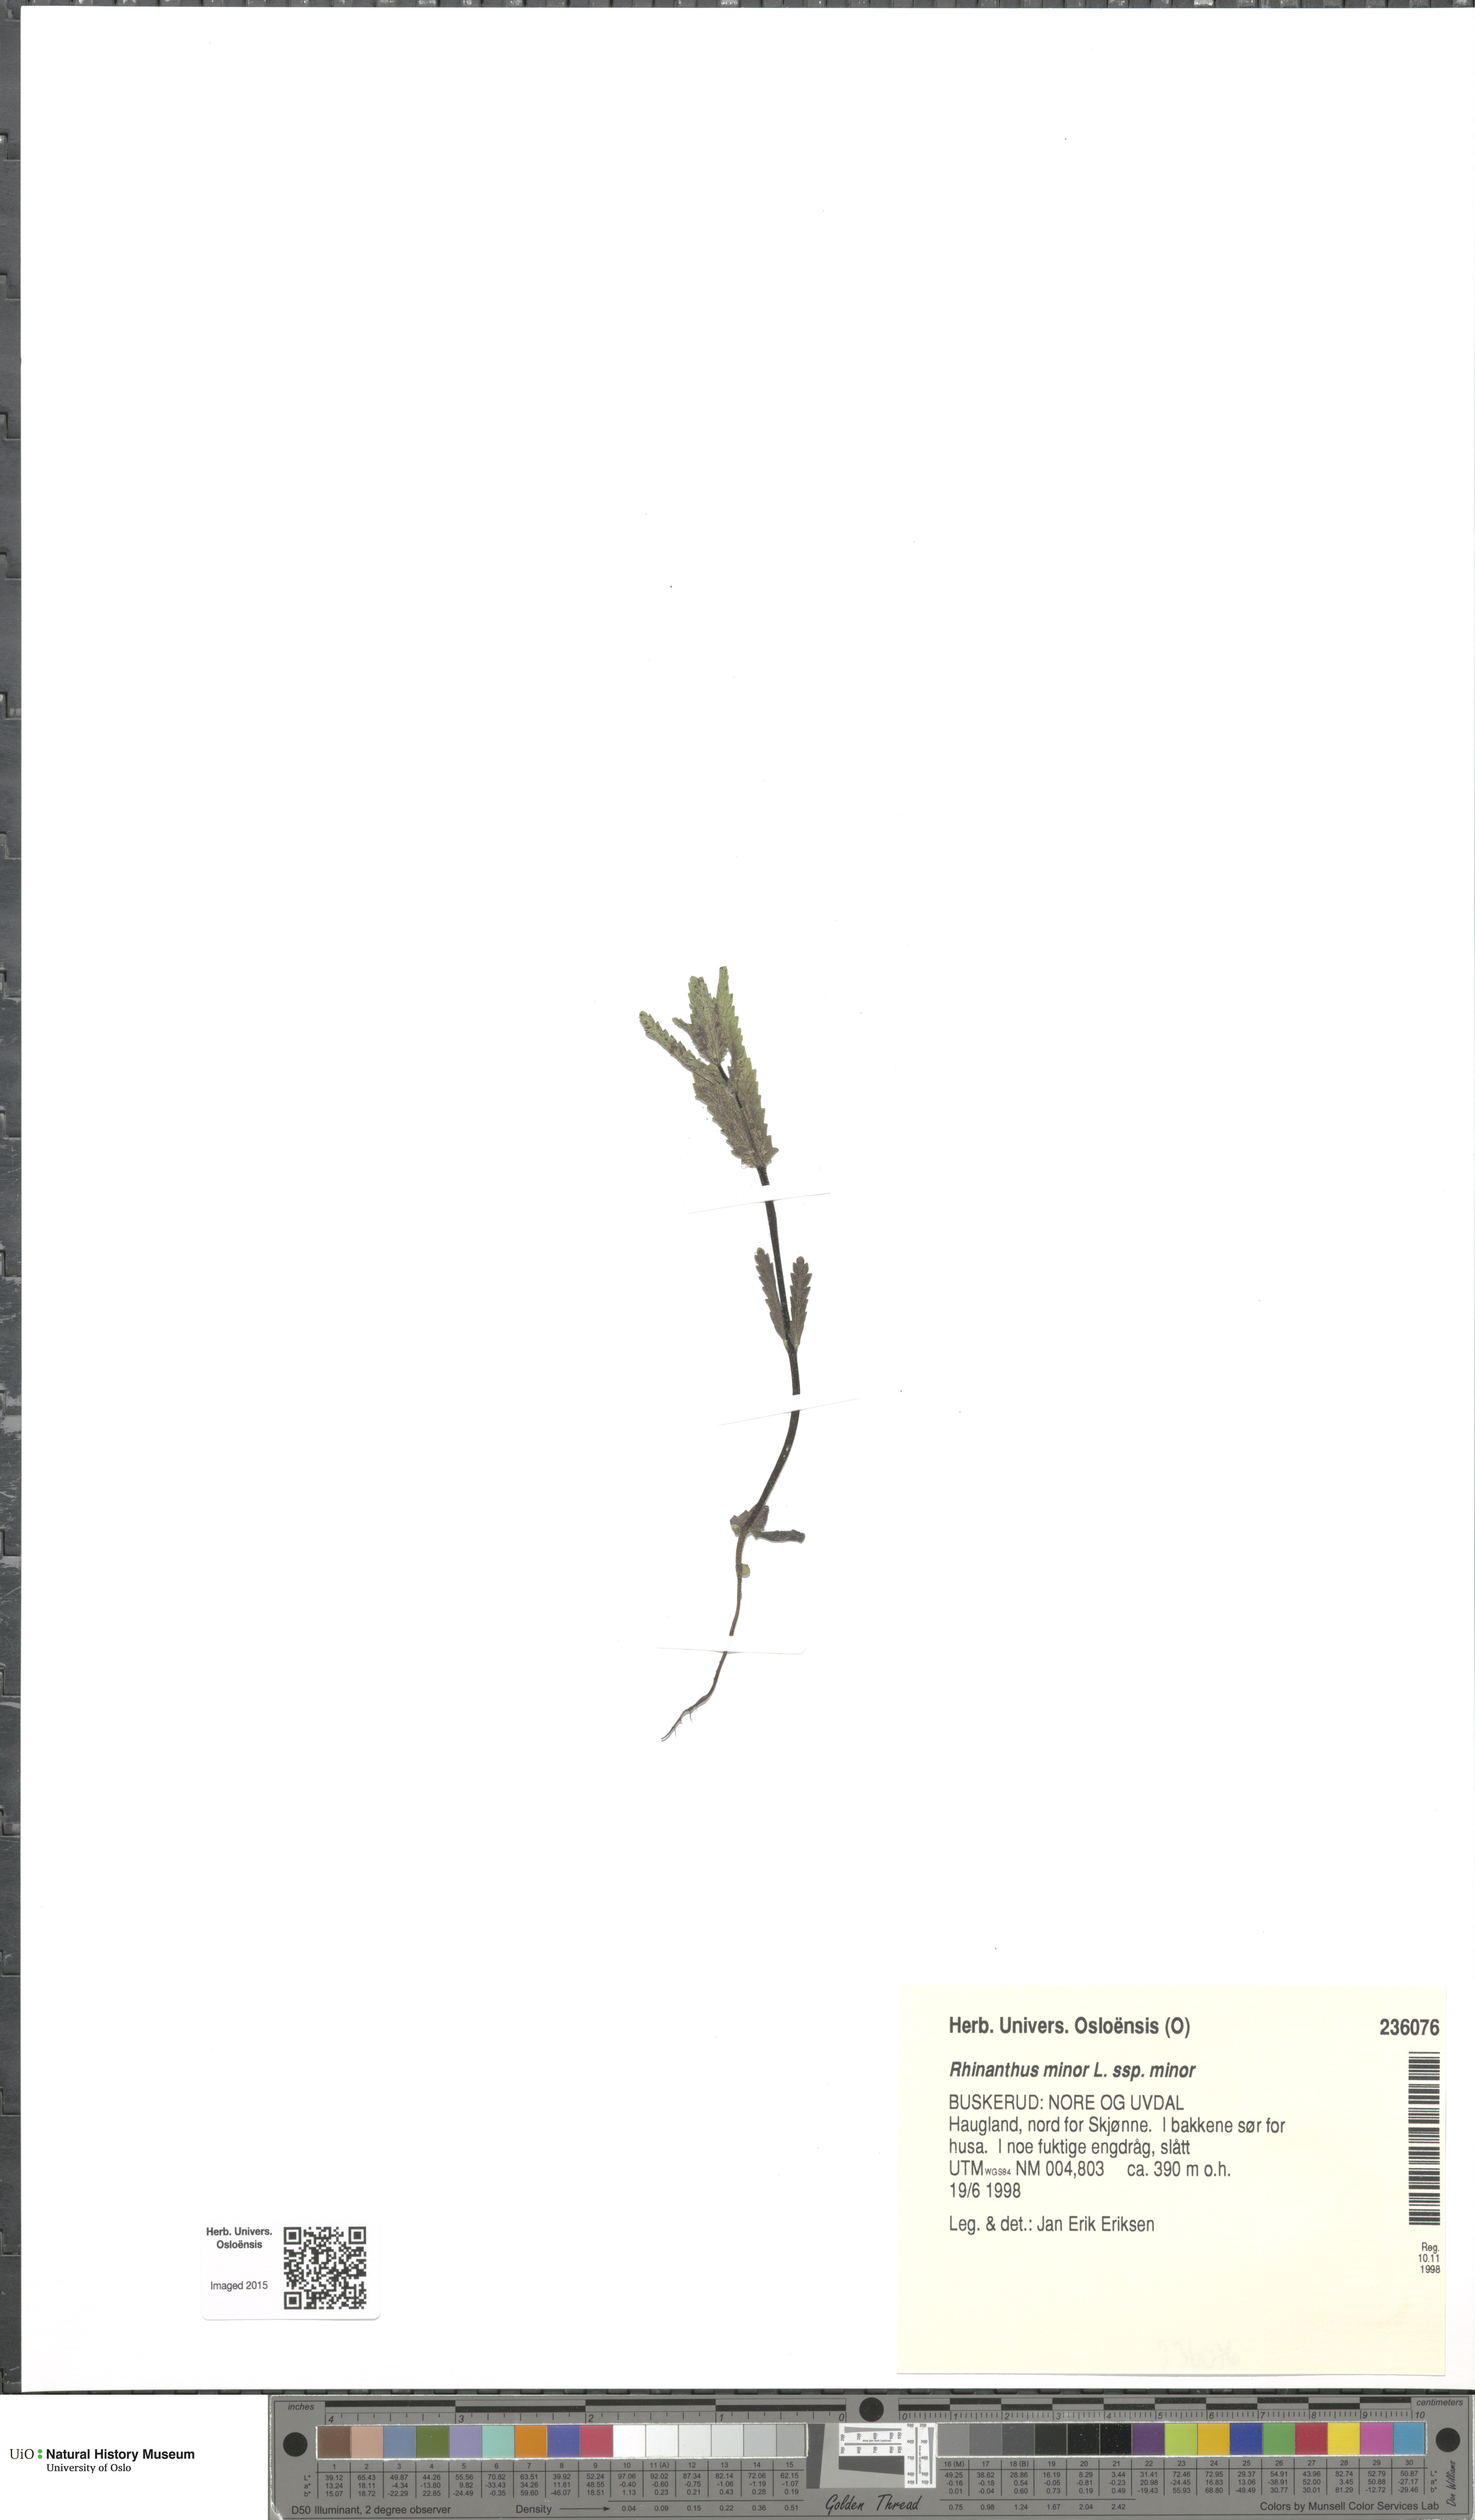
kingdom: Plantae
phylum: Tracheophyta
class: Magnoliopsida
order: Lamiales
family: Orobanchaceae
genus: Rhinanthus
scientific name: Rhinanthus minor
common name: Yellow-rattle
